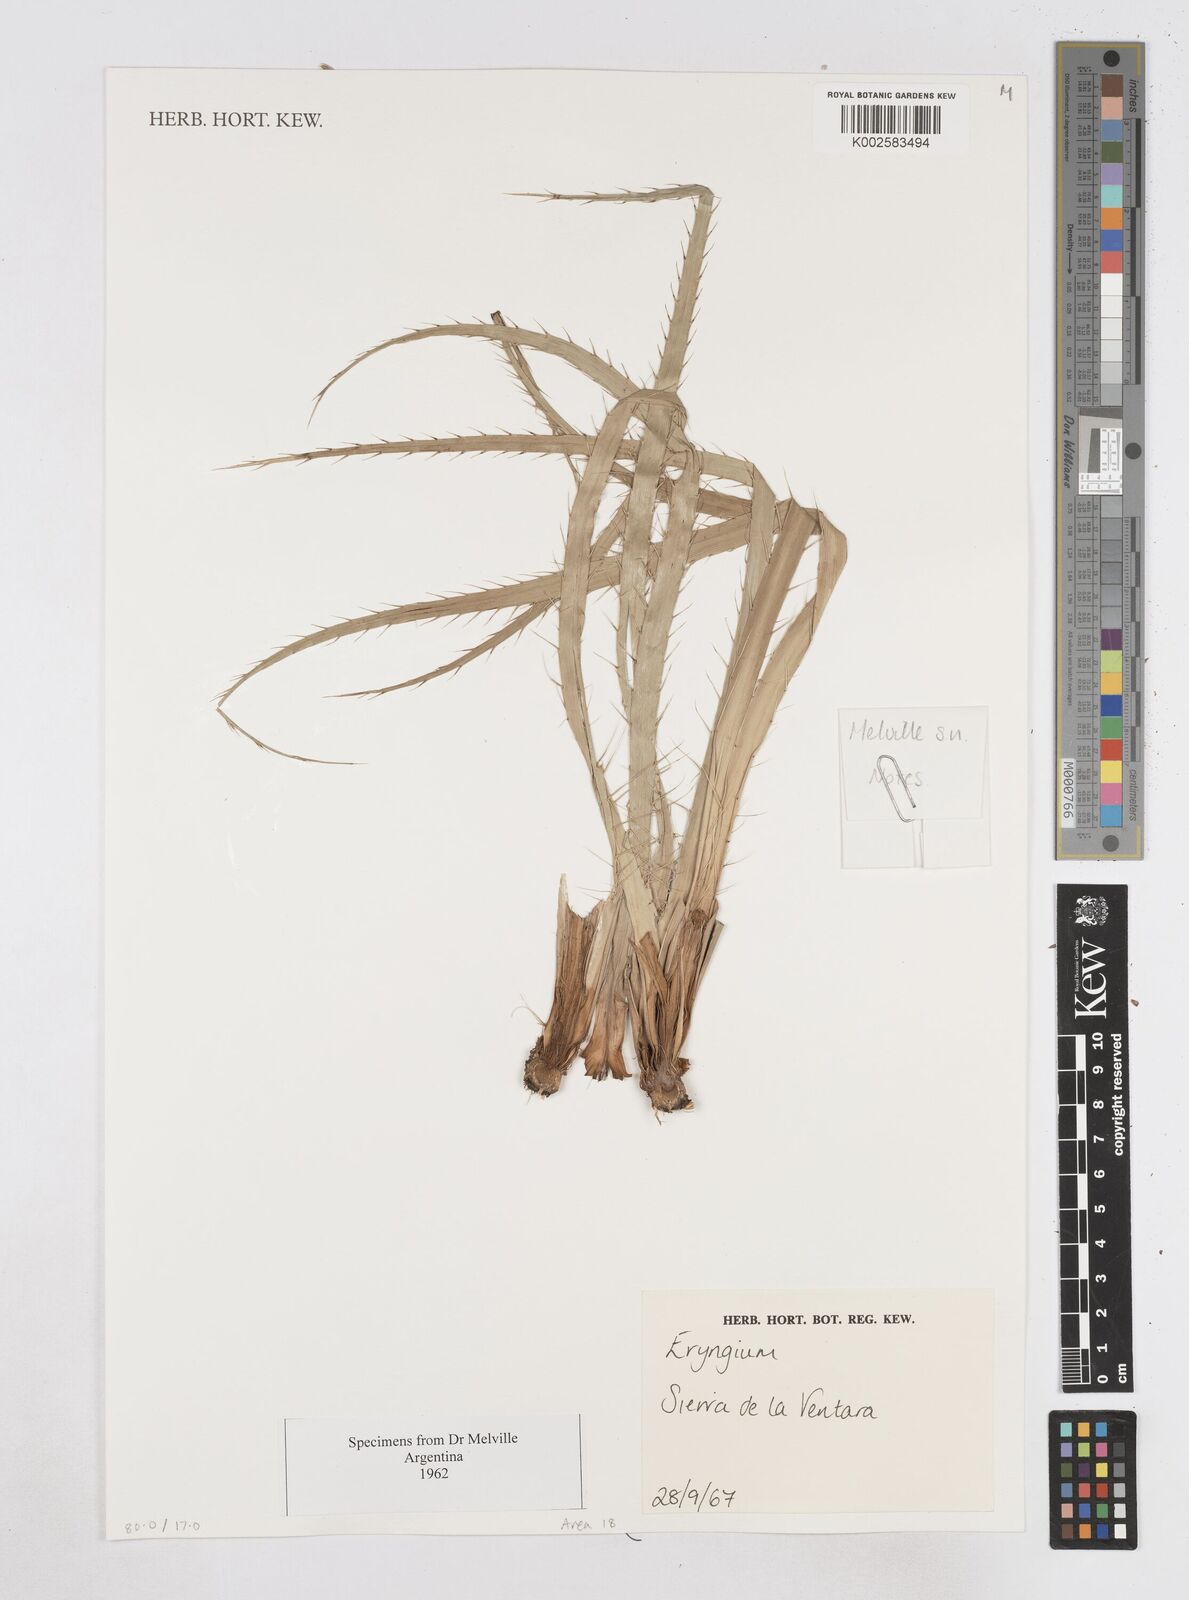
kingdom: Plantae
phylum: Tracheophyta
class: Magnoliopsida
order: Apiales
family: Apiaceae
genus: Eryngium
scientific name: Eryngium
